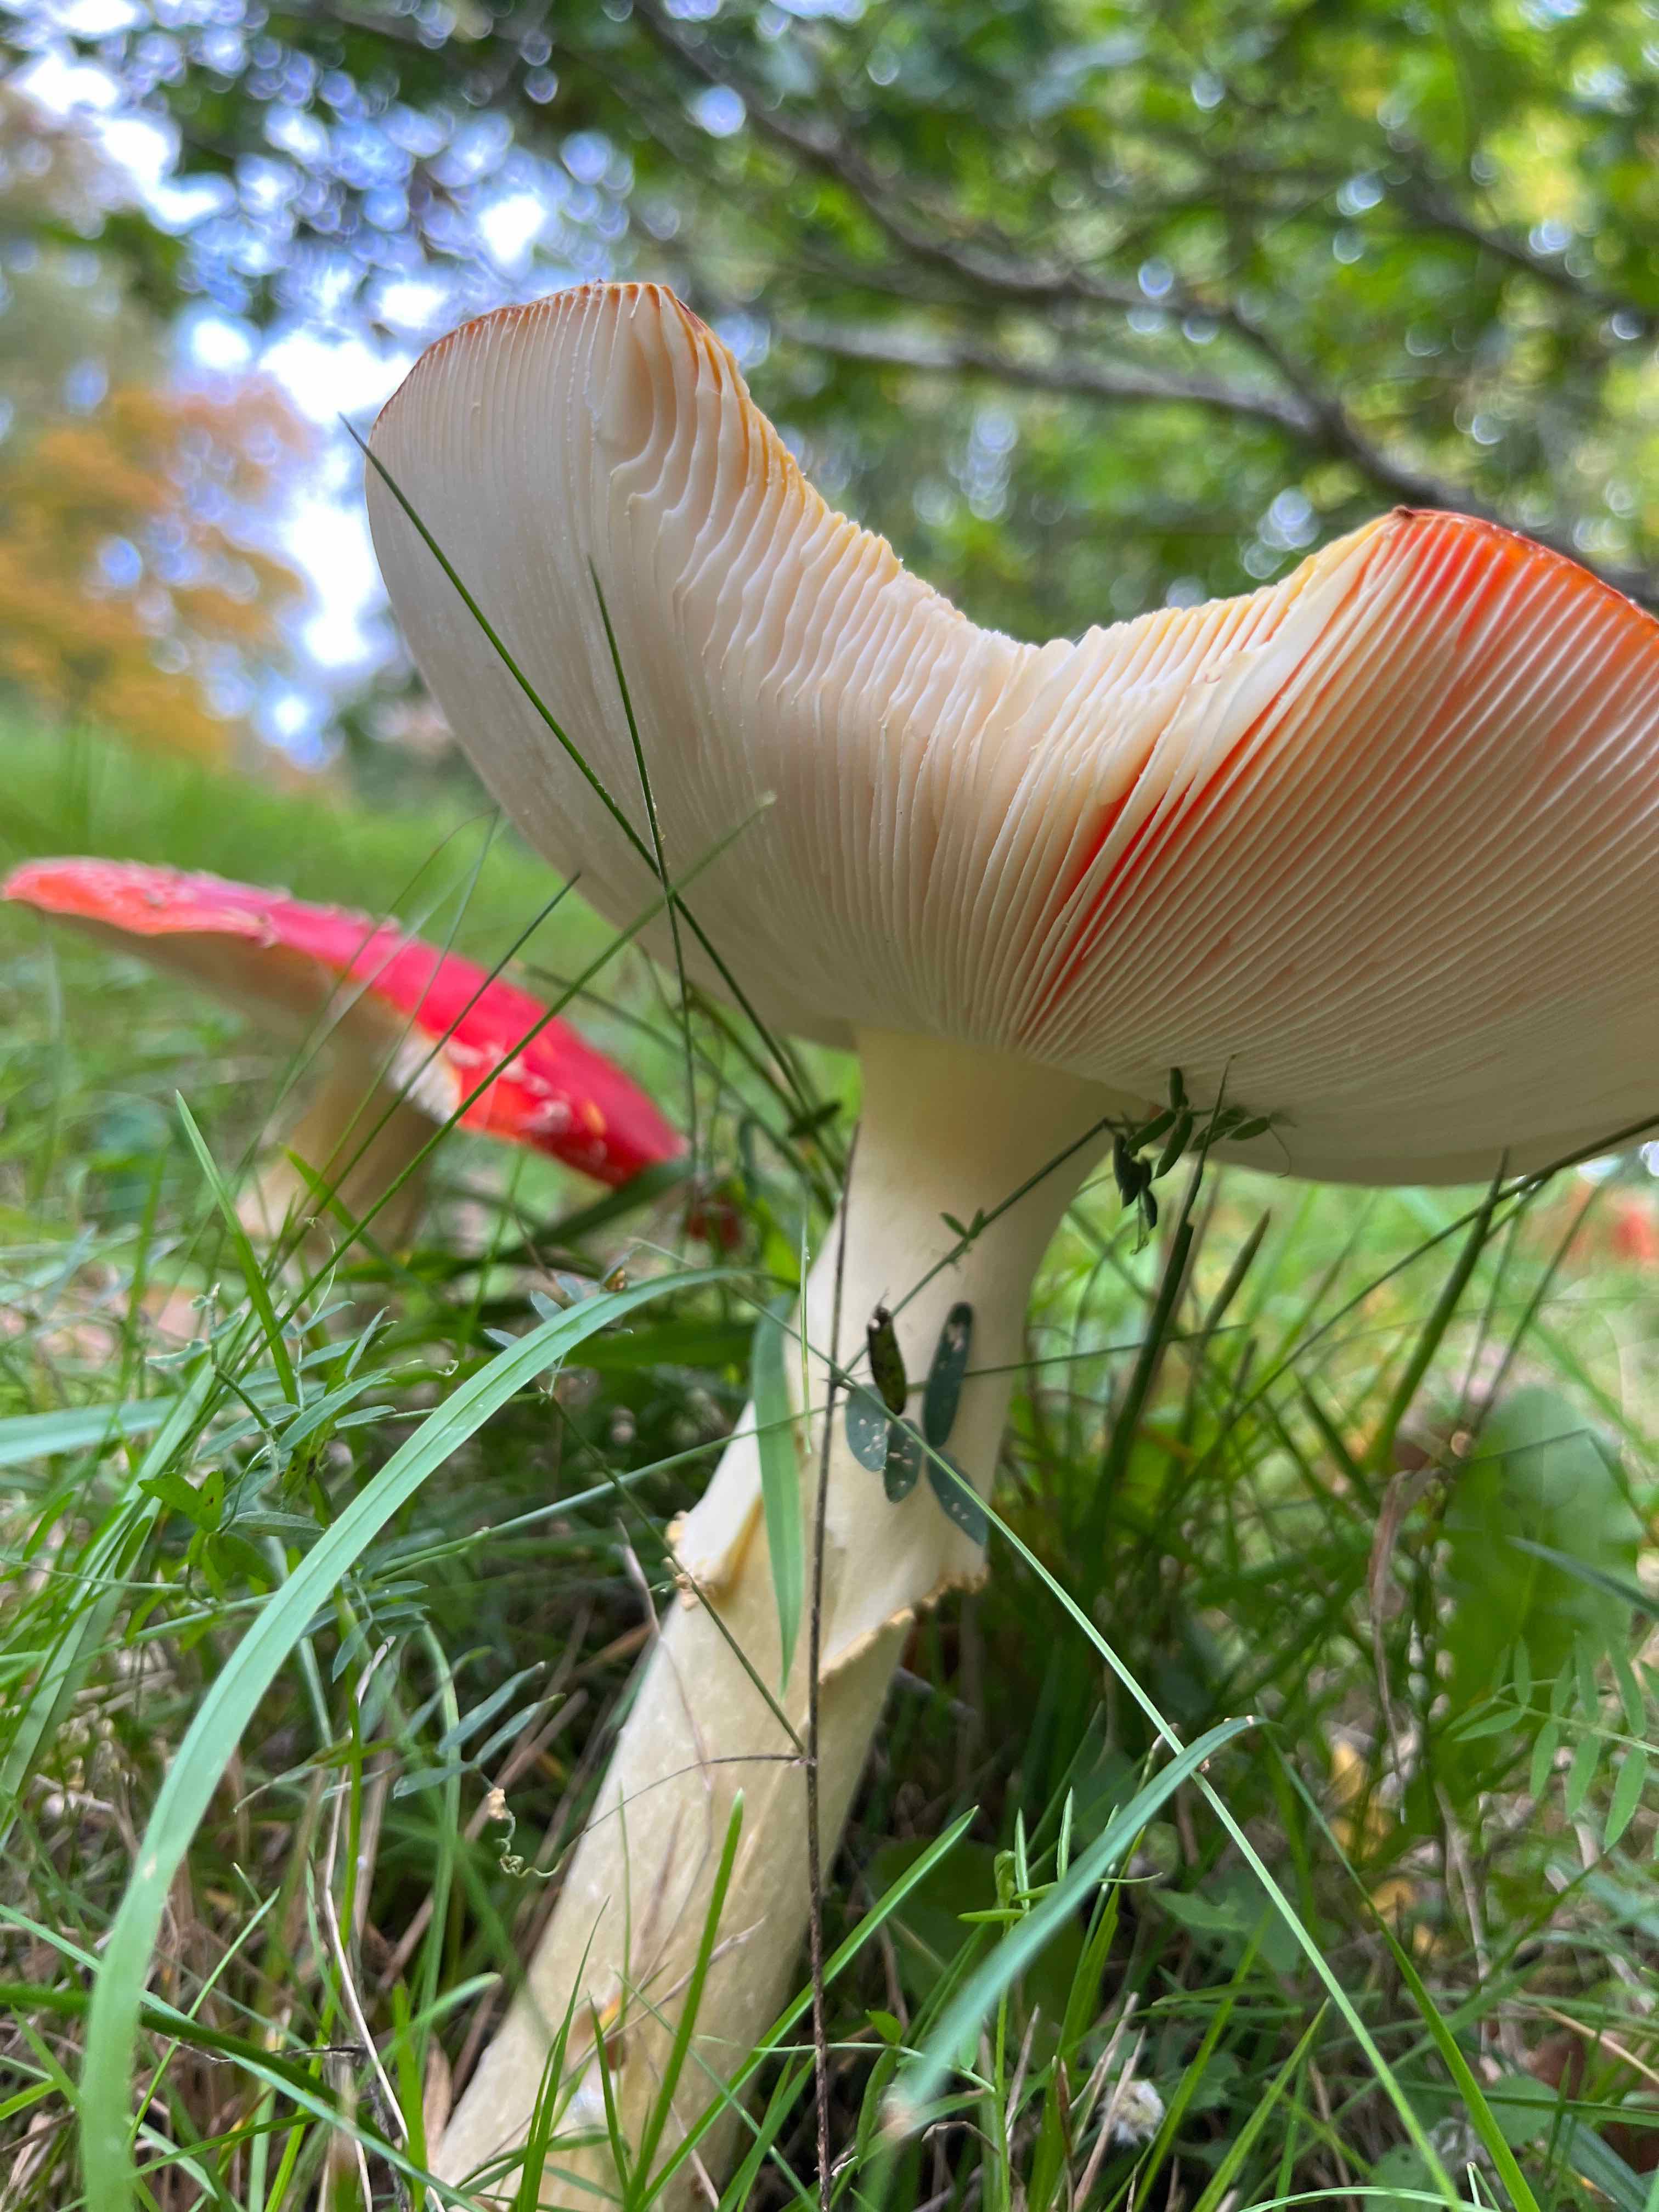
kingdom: Fungi
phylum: Basidiomycota
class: Agaricomycetes
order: Agaricales
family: Amanitaceae
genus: Amanita
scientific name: Amanita muscaria
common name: rød fluesvamp
